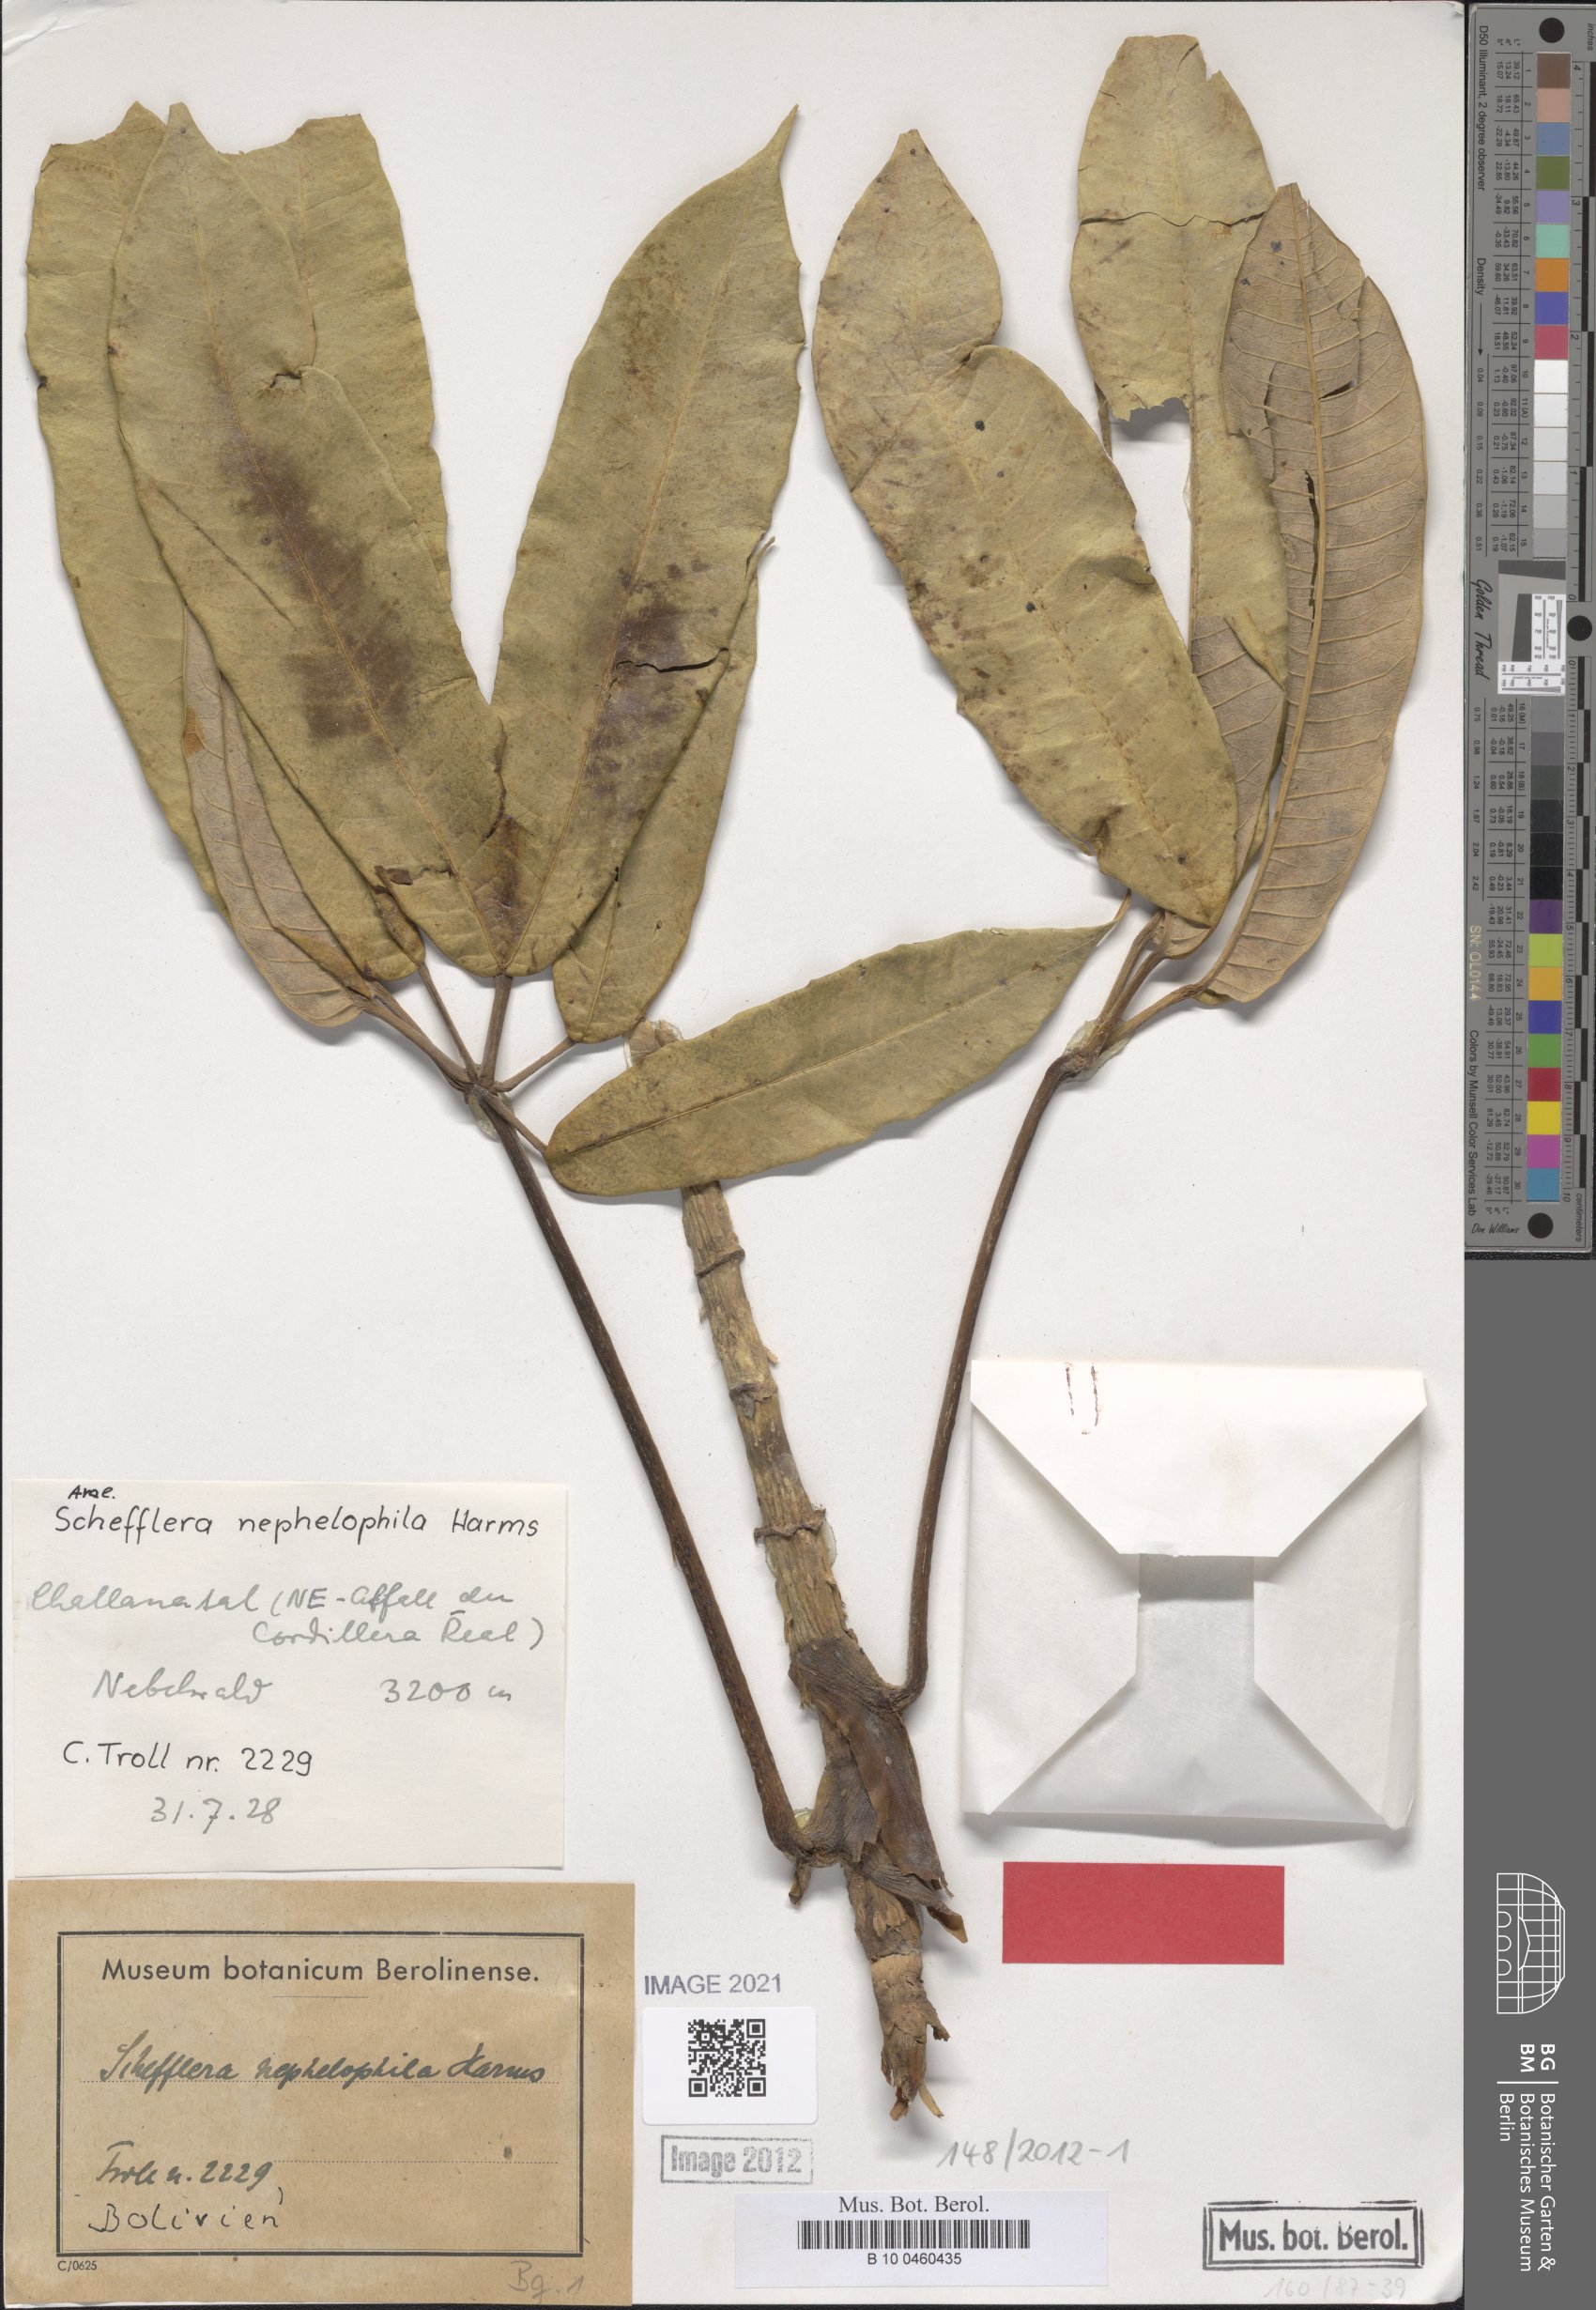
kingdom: Plantae
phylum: Tracheophyta
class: Magnoliopsida
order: Apiales
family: Araliaceae
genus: Sciodaphyllum
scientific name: Sciodaphyllum nephelophilum
